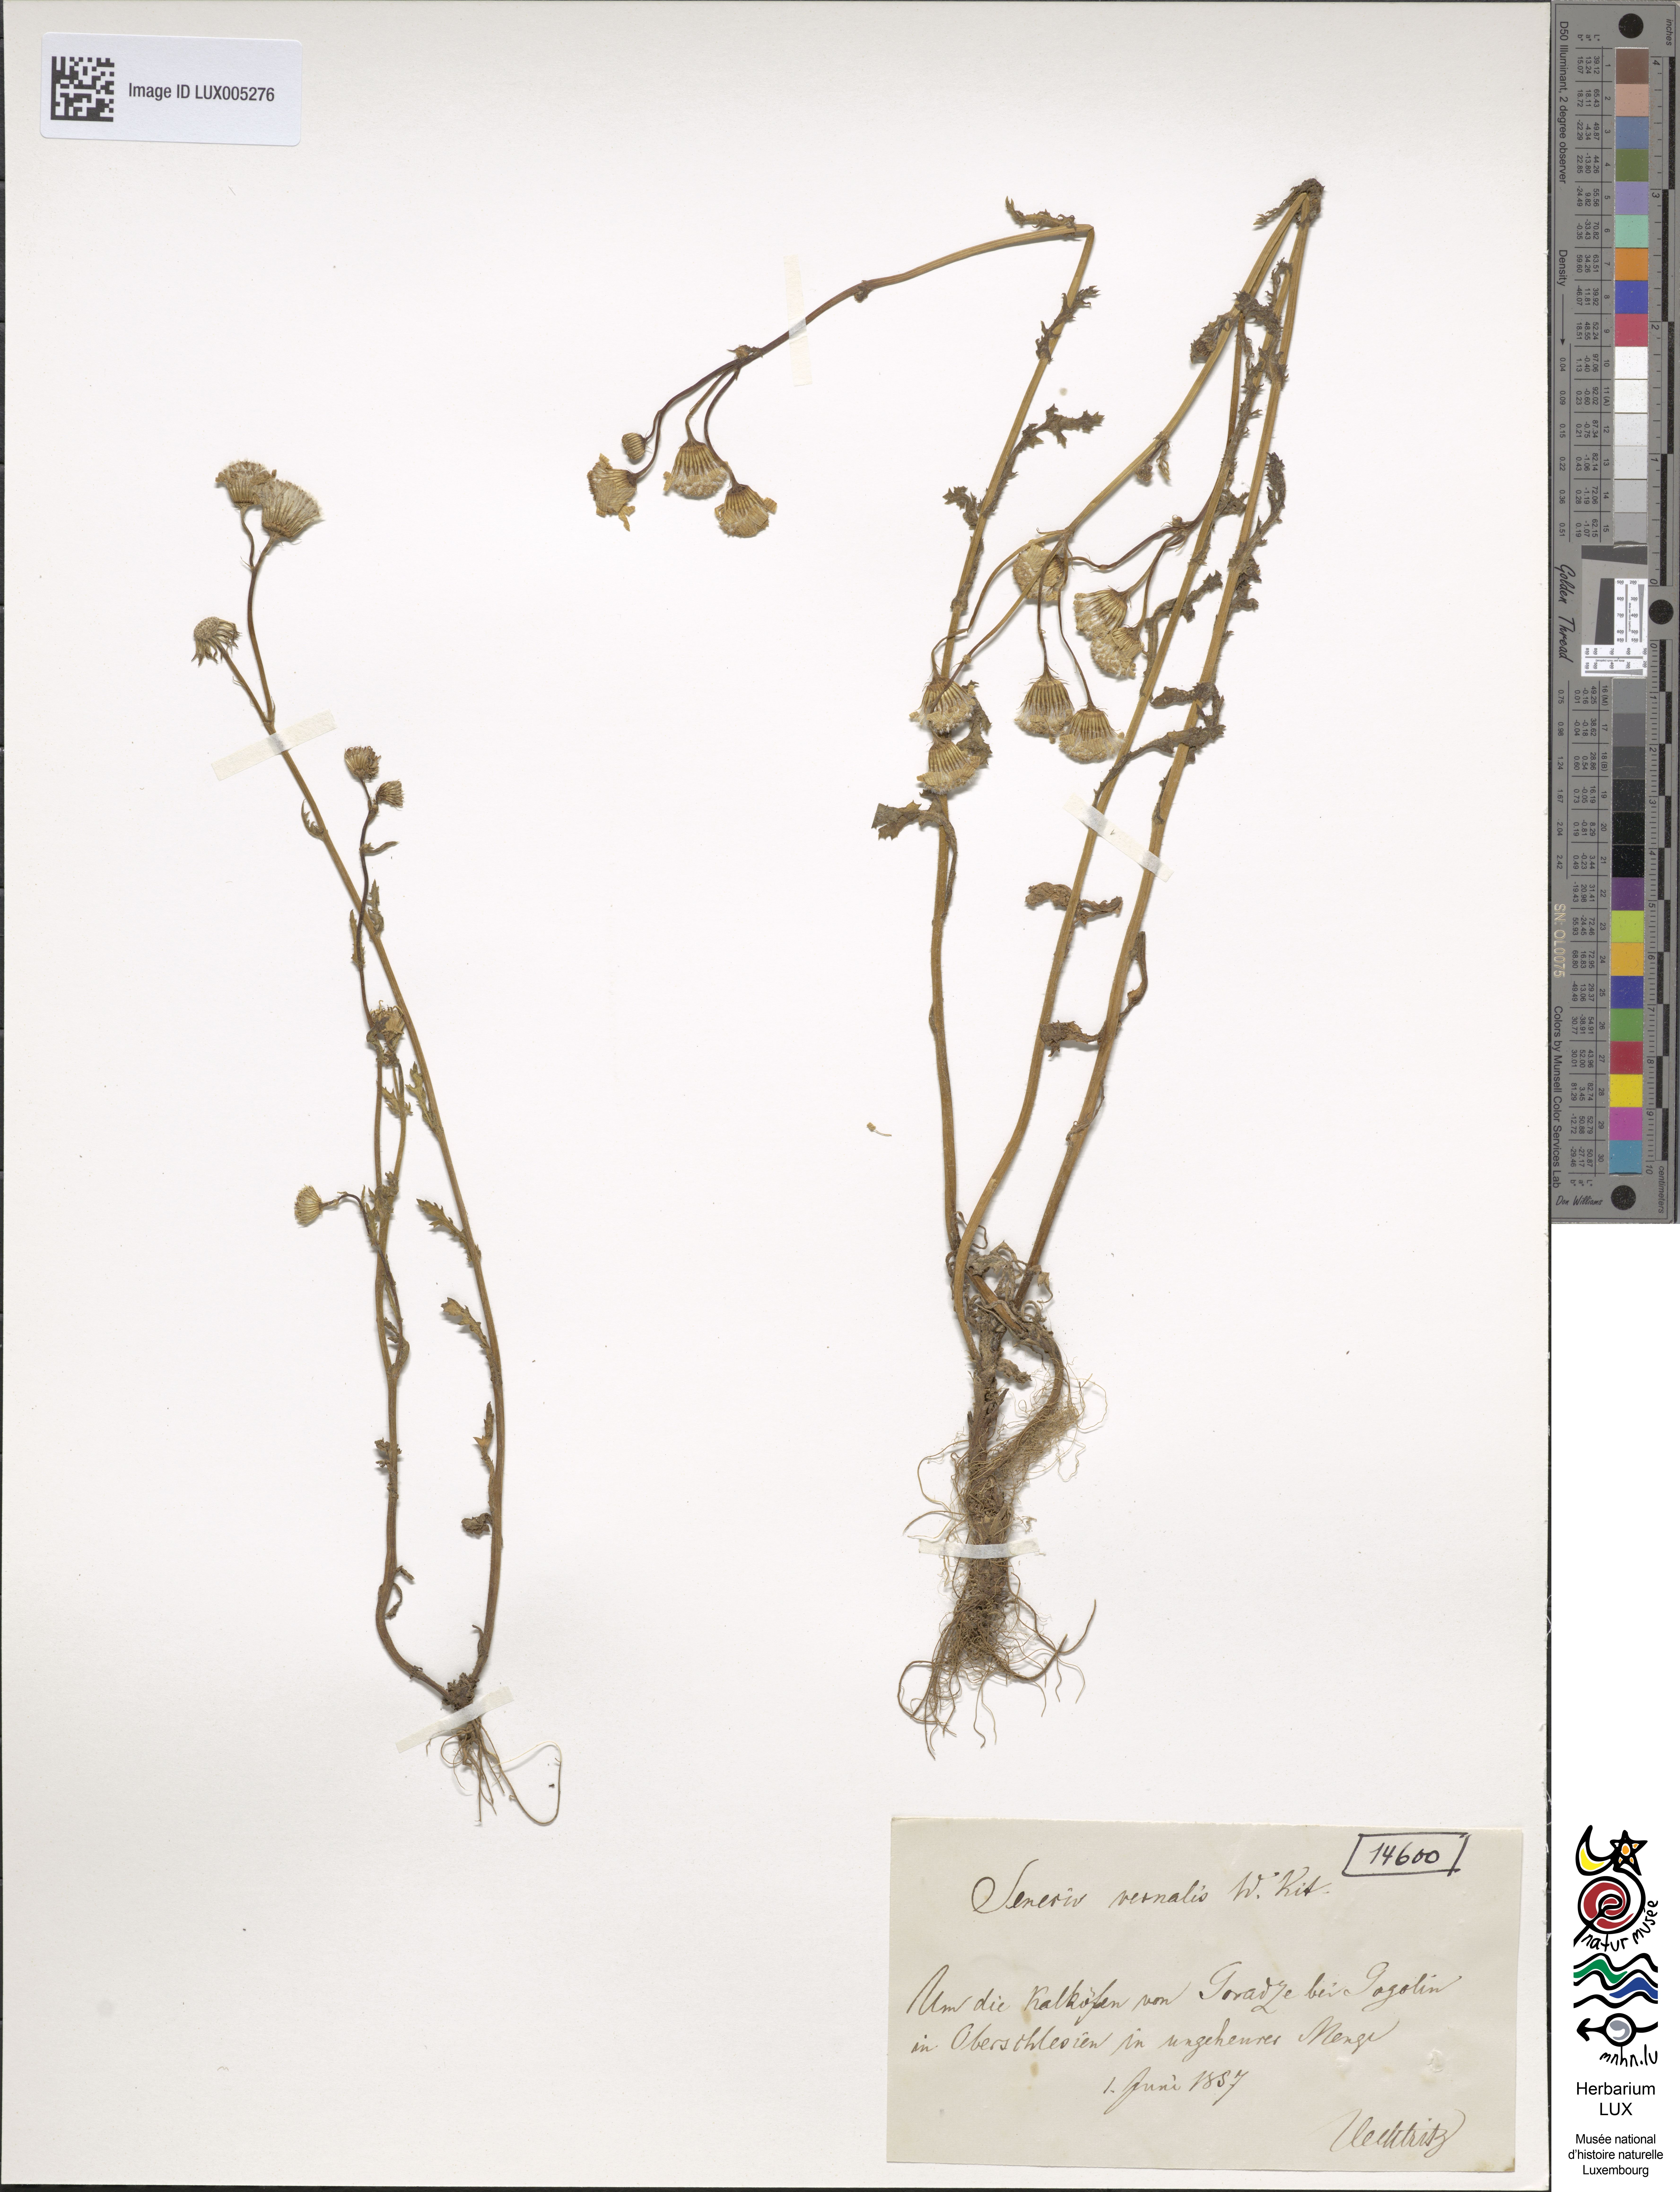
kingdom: Plantae
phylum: Tracheophyta
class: Magnoliopsida
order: Asterales
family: Asteraceae
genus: Senecio
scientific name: Senecio vernalis
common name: Eastern groundsel
